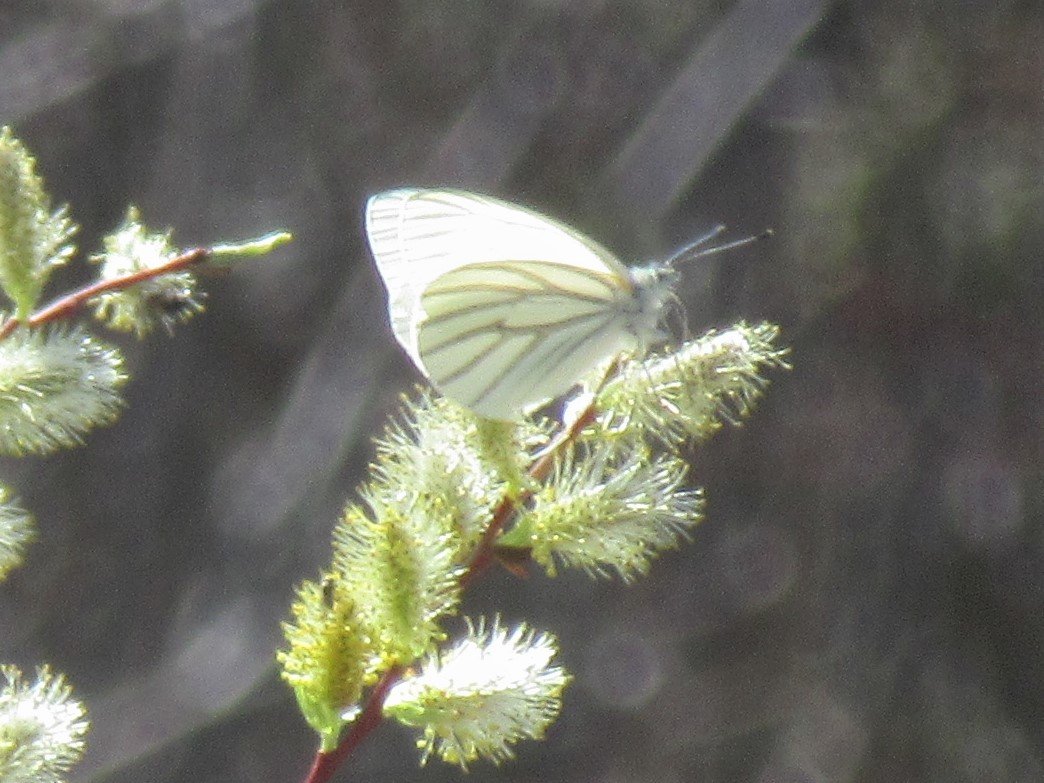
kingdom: Animalia
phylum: Arthropoda
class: Insecta
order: Lepidoptera
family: Pieridae
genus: Pieris
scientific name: Pieris oleracea
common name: Mustard White
